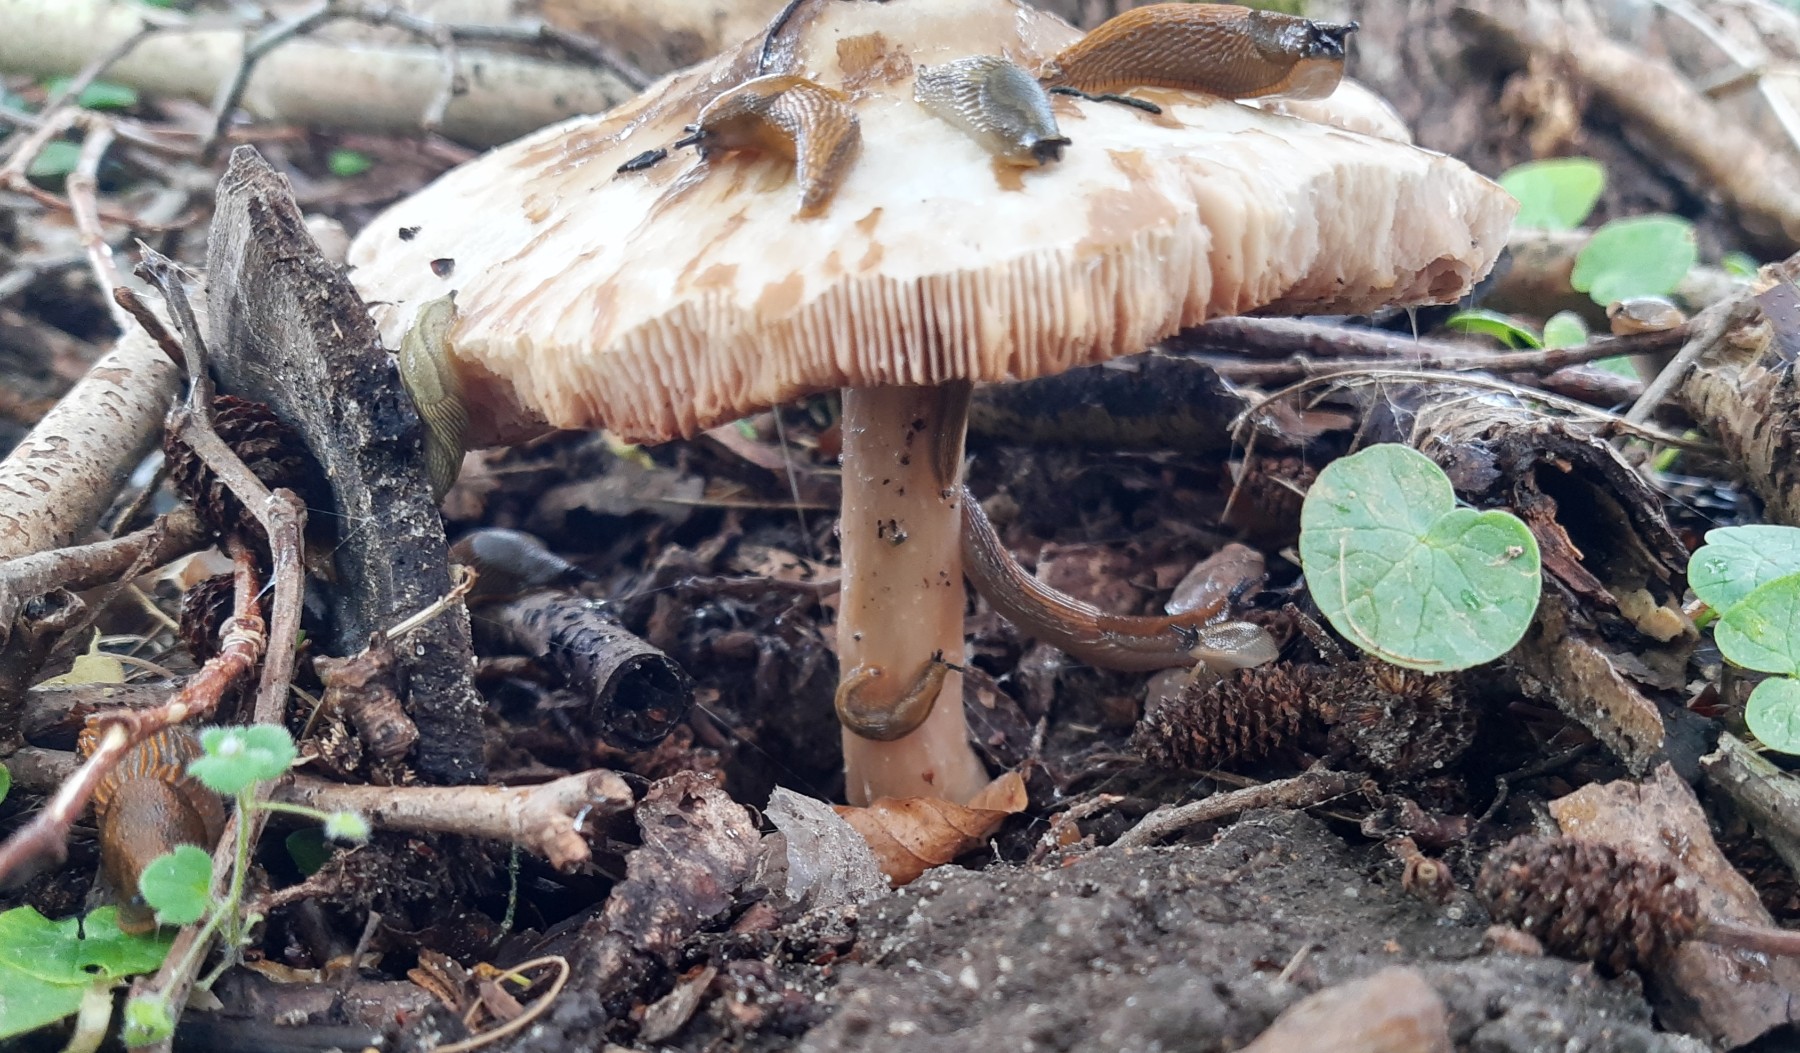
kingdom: Fungi
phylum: Basidiomycota
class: Agaricomycetes
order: Agaricales
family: Pluteaceae
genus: Pluteus
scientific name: Pluteus cervinus
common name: sodfarvet skærmhat
